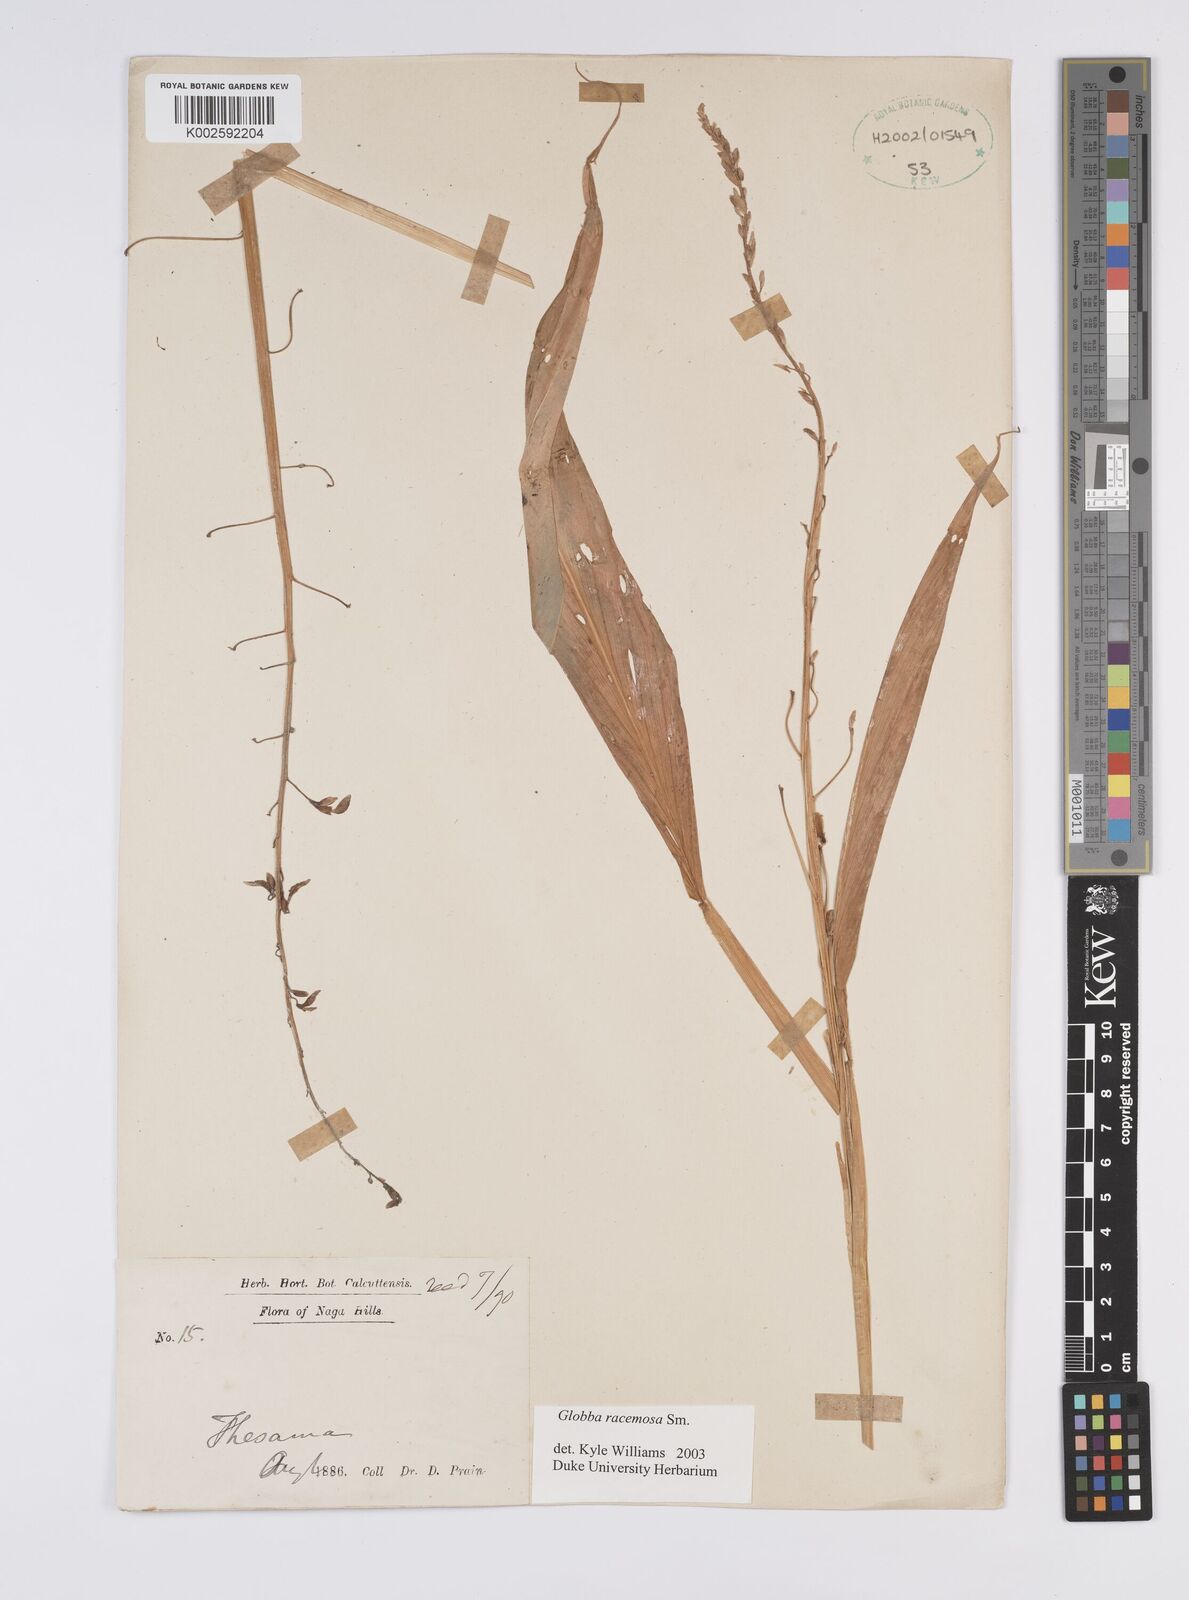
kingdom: Plantae
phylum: Tracheophyta
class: Liliopsida
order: Zingiberales
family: Zingiberaceae
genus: Globba
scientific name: Globba racemosa
